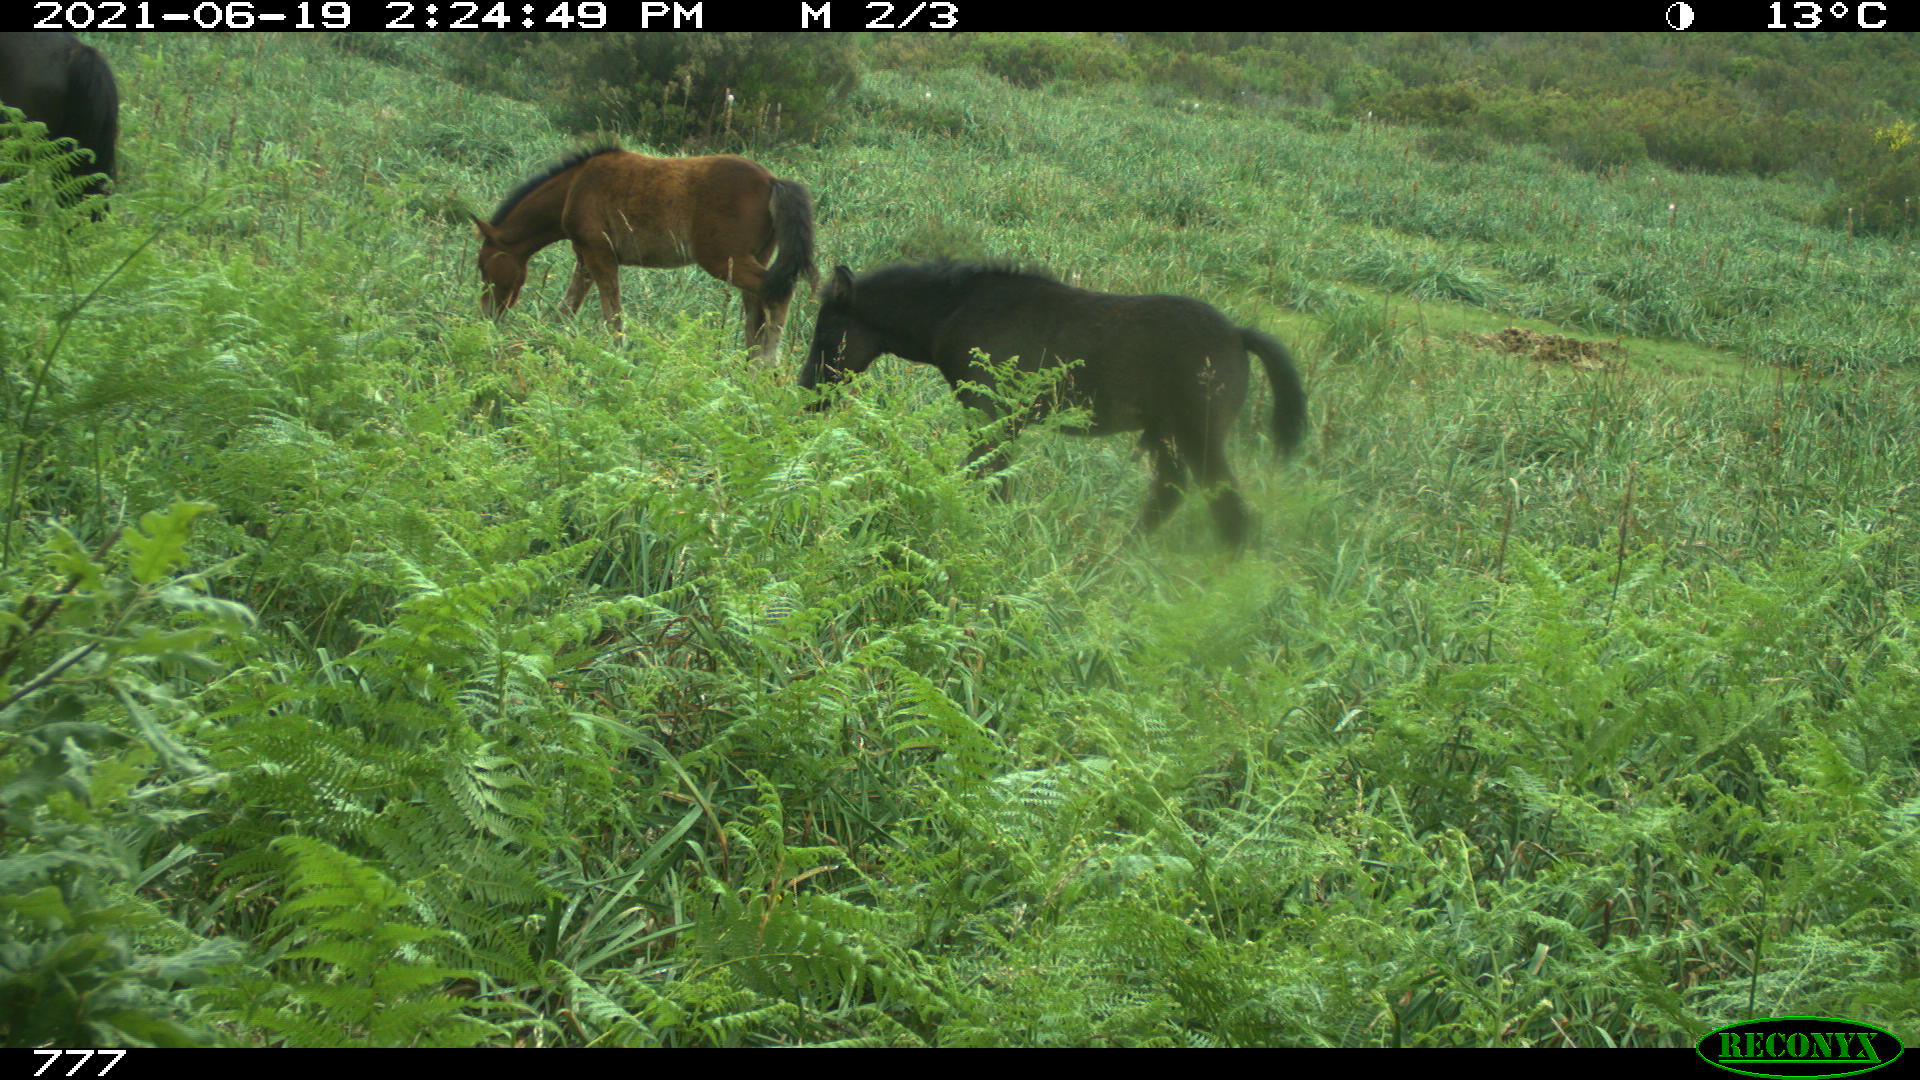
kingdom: Animalia
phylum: Chordata
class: Mammalia
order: Perissodactyla
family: Equidae
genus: Equus
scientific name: Equus caballus
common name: Horse
